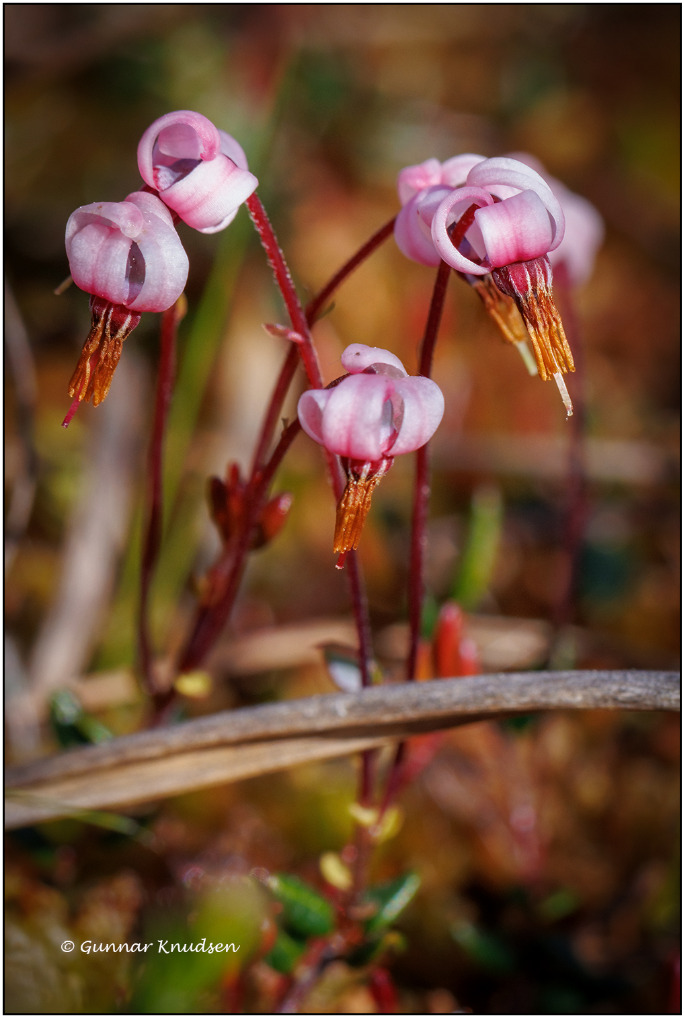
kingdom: Plantae
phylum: Tracheophyta
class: Magnoliopsida
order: Ericales
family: Ericaceae
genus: Vaccinium
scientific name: Vaccinium oxycoccos
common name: Tranebær
